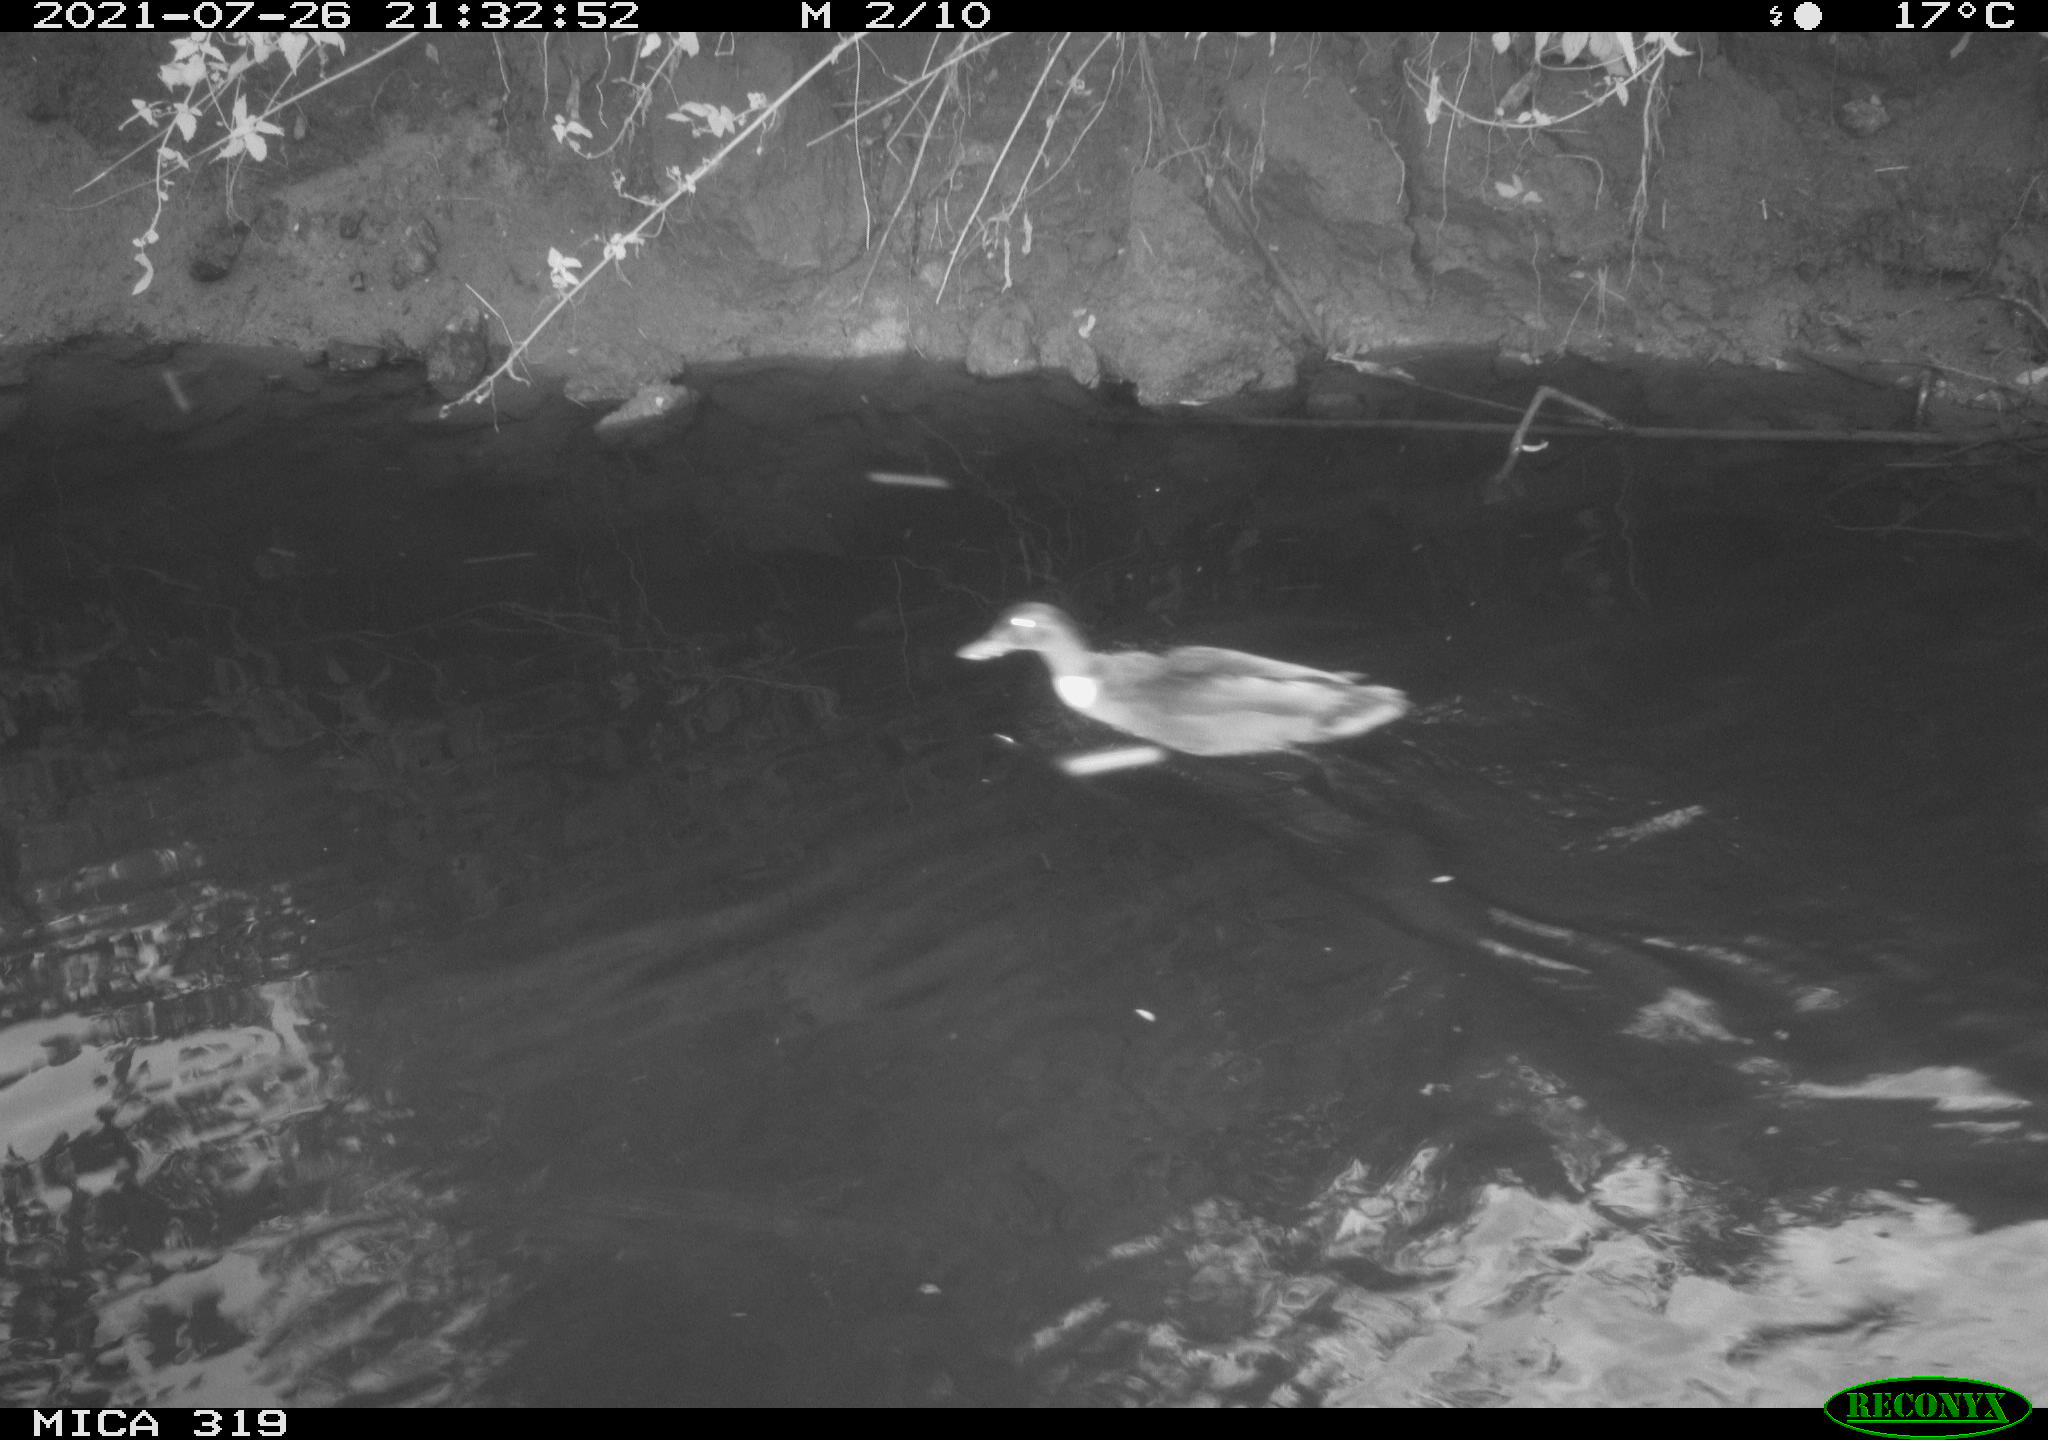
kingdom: Animalia
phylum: Chordata
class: Aves
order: Anseriformes
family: Anatidae
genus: Anas
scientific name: Anas platyrhynchos
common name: Mallard
